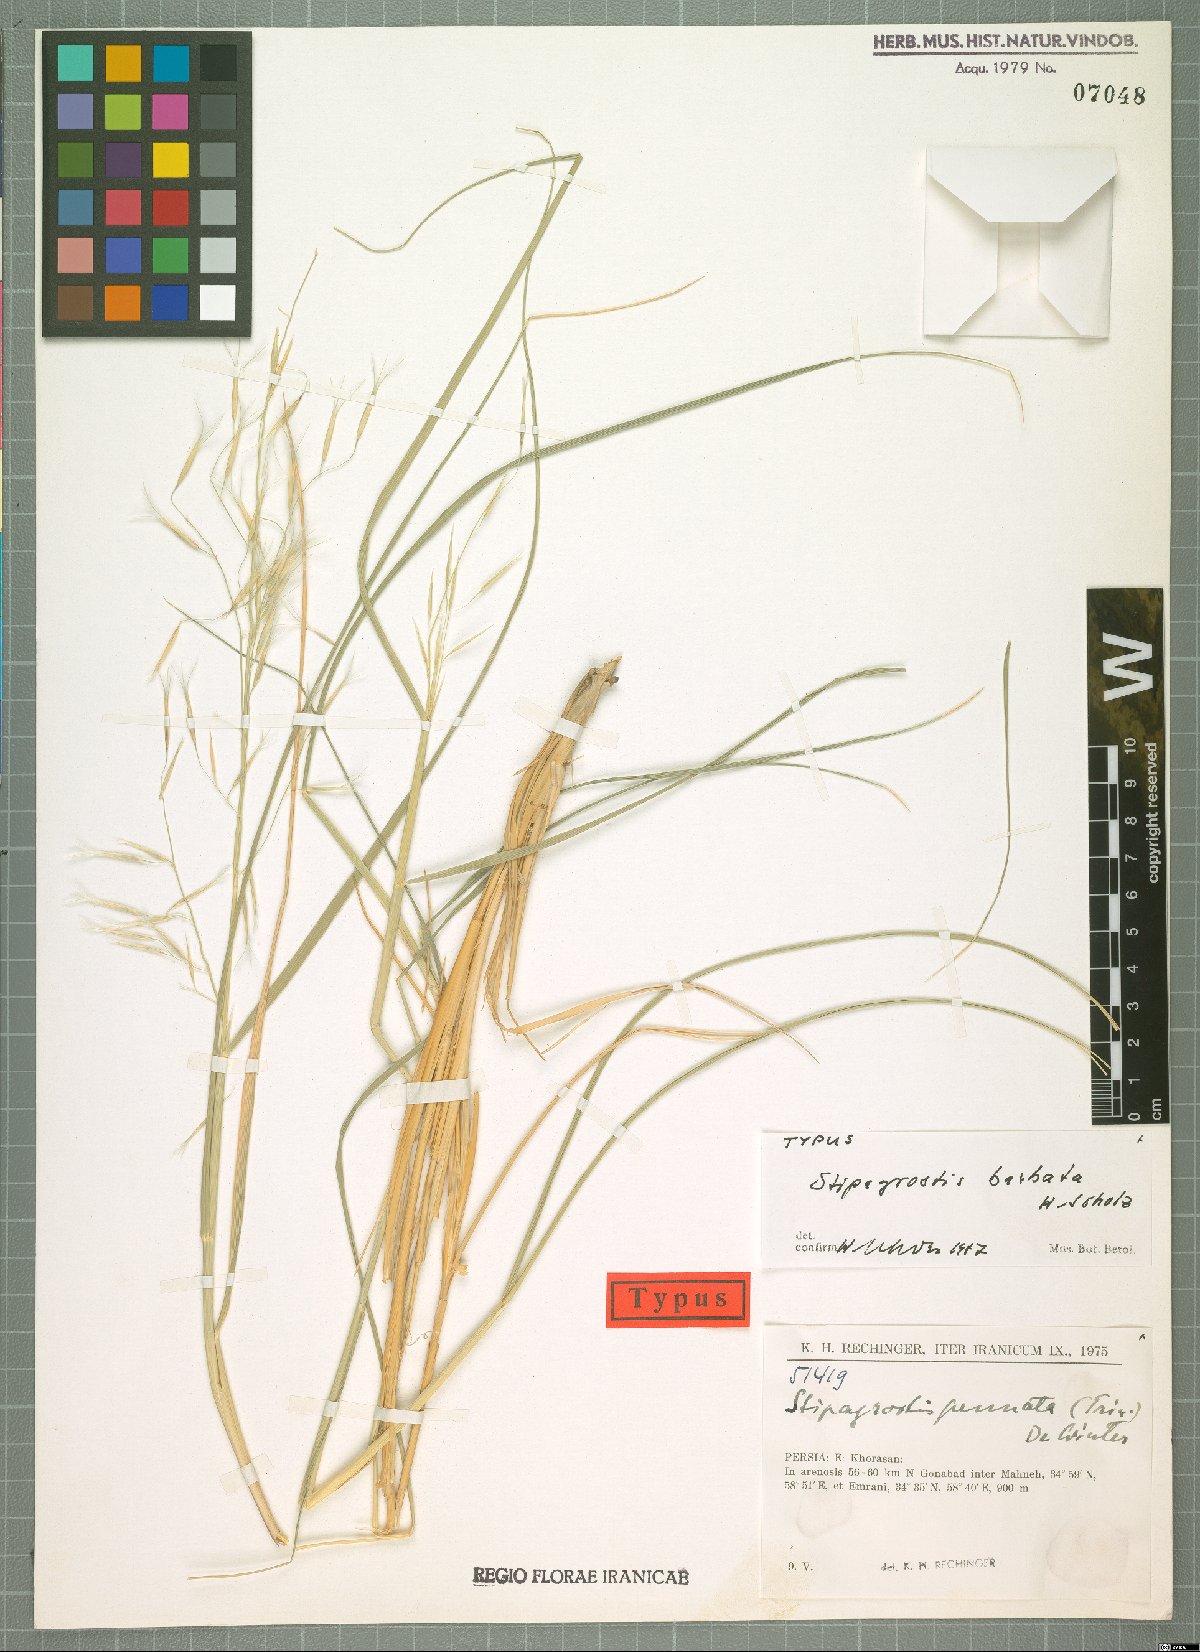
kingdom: Plantae
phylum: Tracheophyta
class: Liliopsida
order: Poales
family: Poaceae
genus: Stipagrostis
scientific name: Stipagrostis pennata
